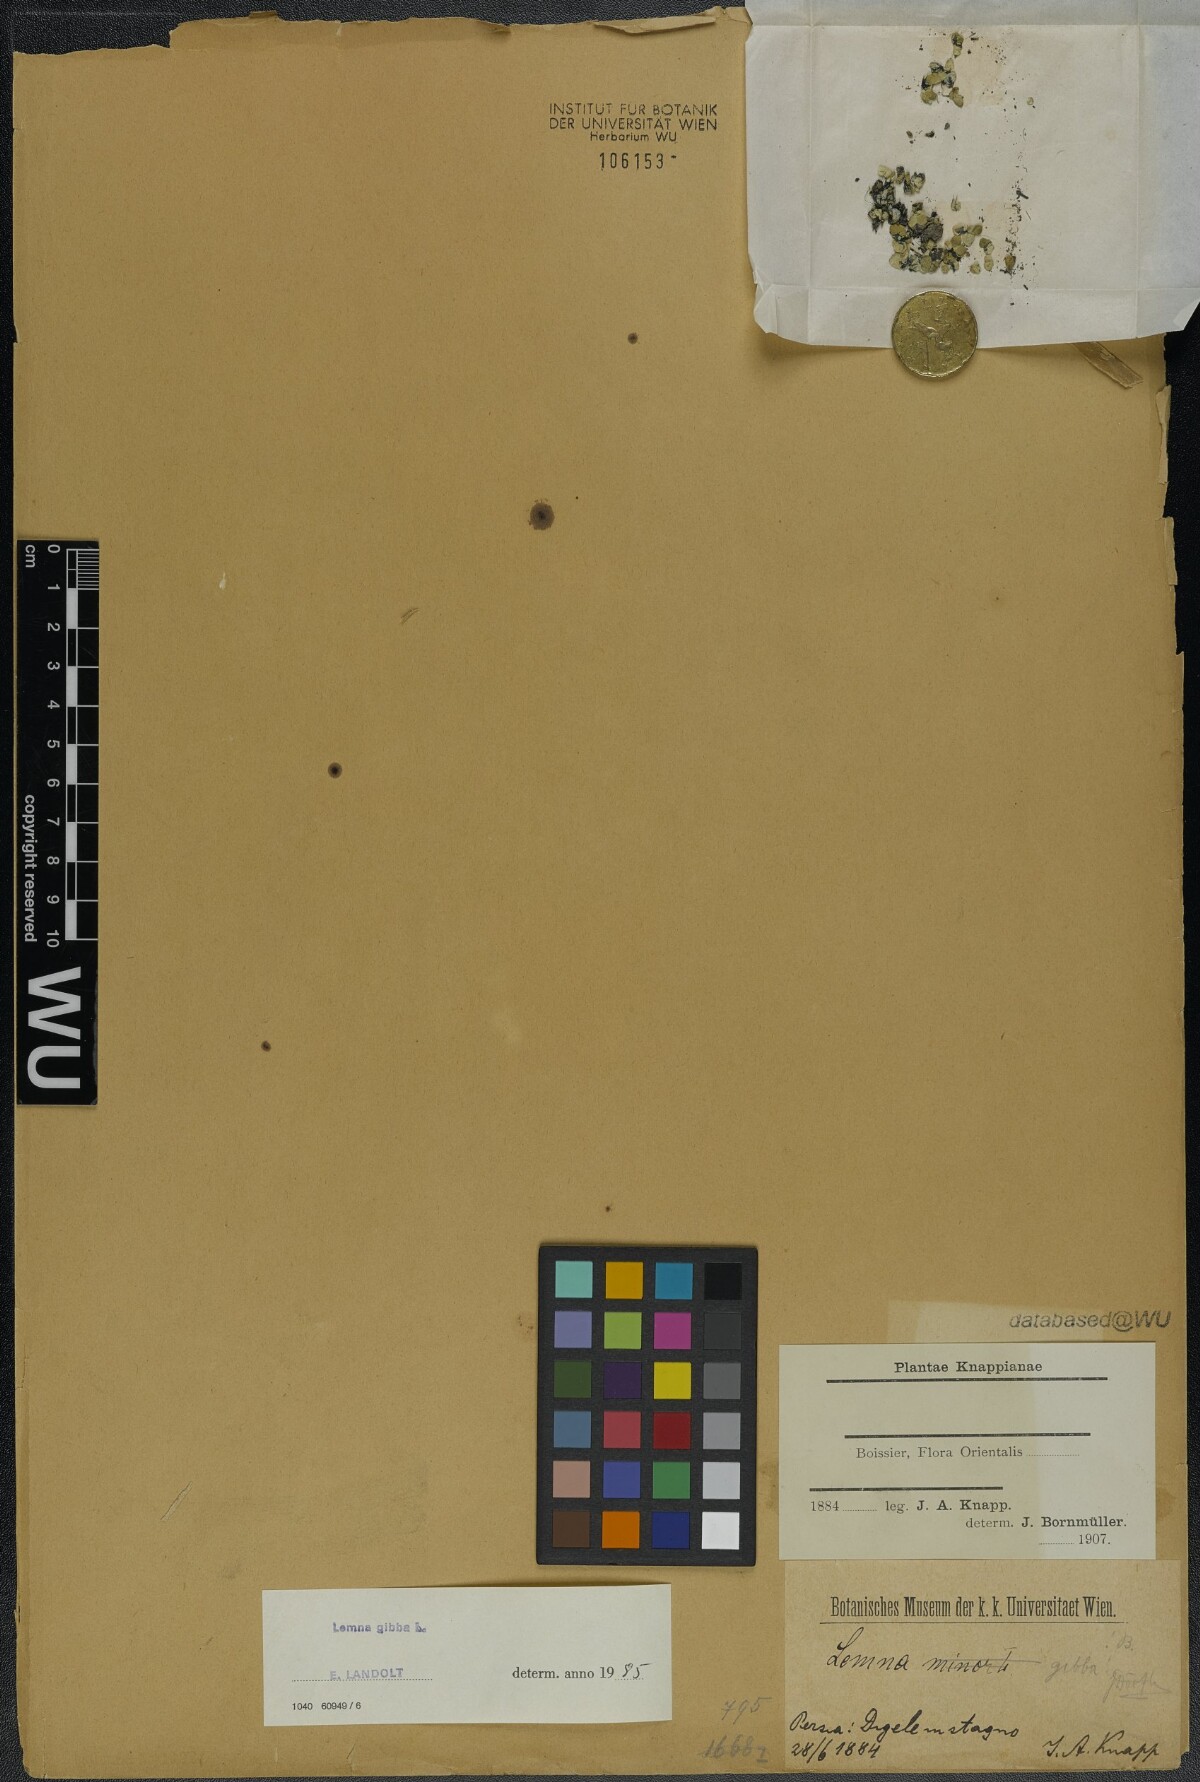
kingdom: Plantae
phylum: Tracheophyta
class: Liliopsida
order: Alismatales
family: Araceae
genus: Lemna
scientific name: Lemna gibba
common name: Fat duckweed
